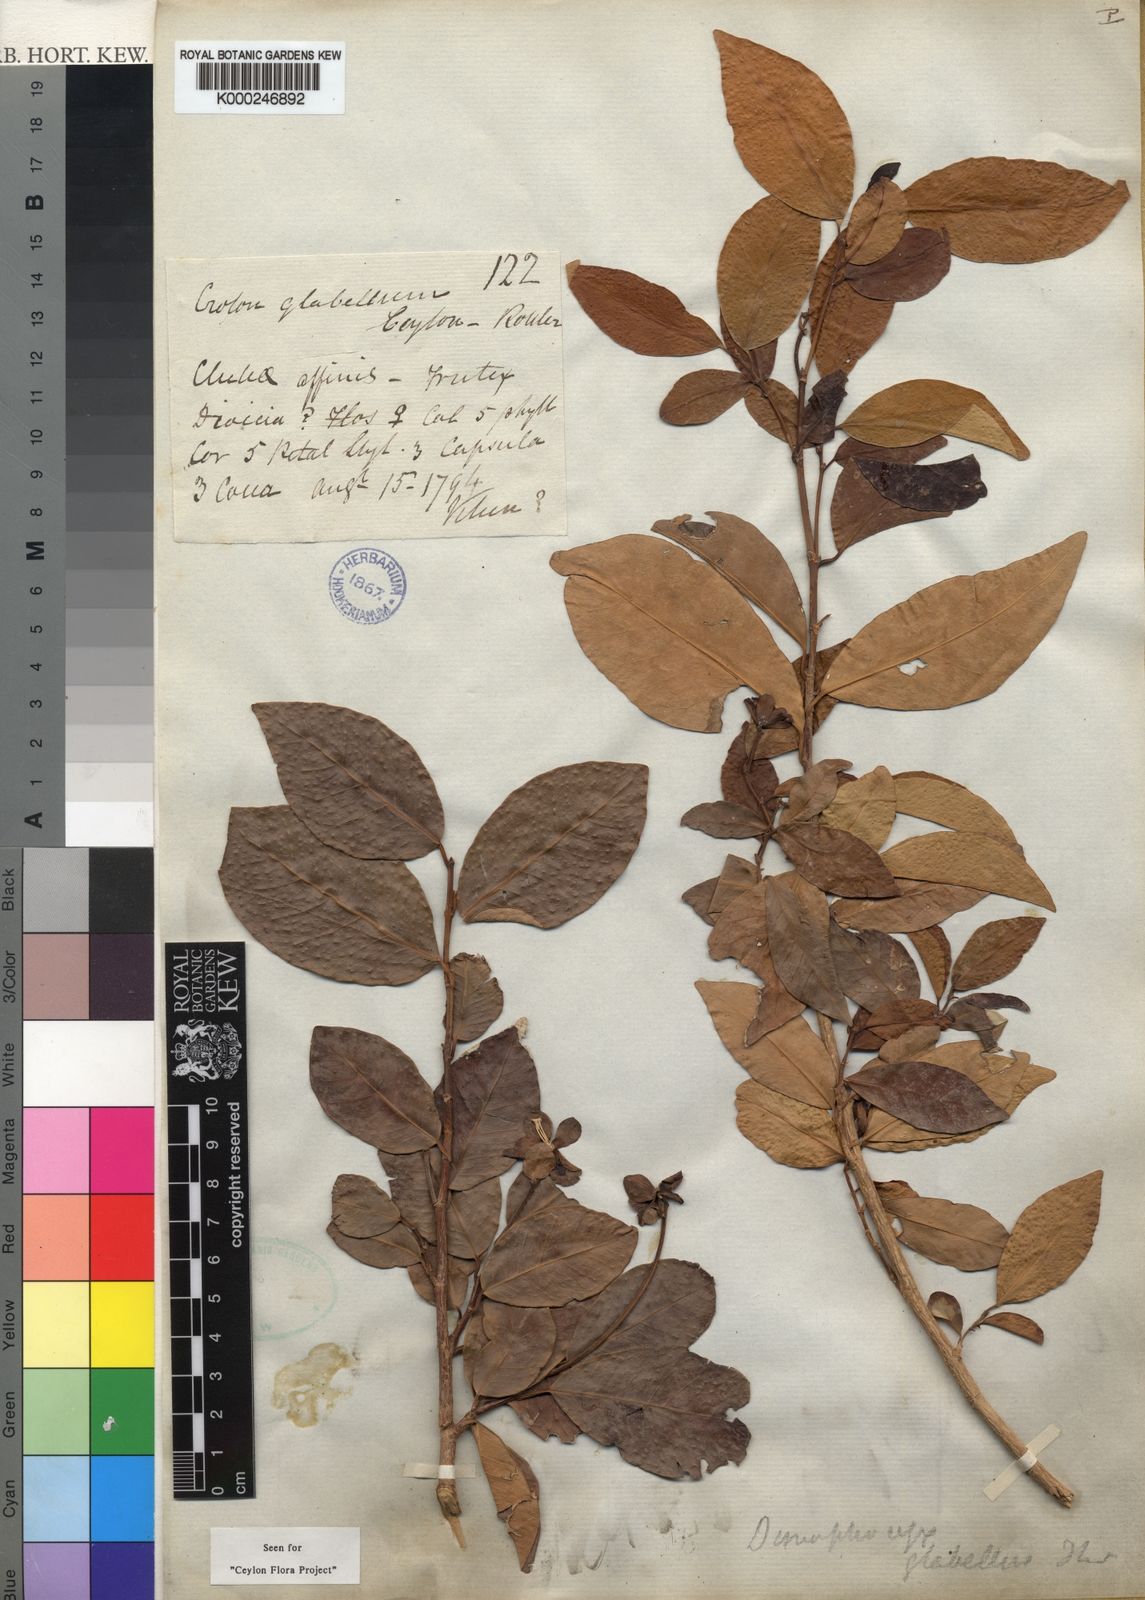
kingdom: Plantae
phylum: Tracheophyta
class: Magnoliopsida
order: Malpighiales
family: Euphorbiaceae
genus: Tritaxis
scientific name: Tritaxis glabella
